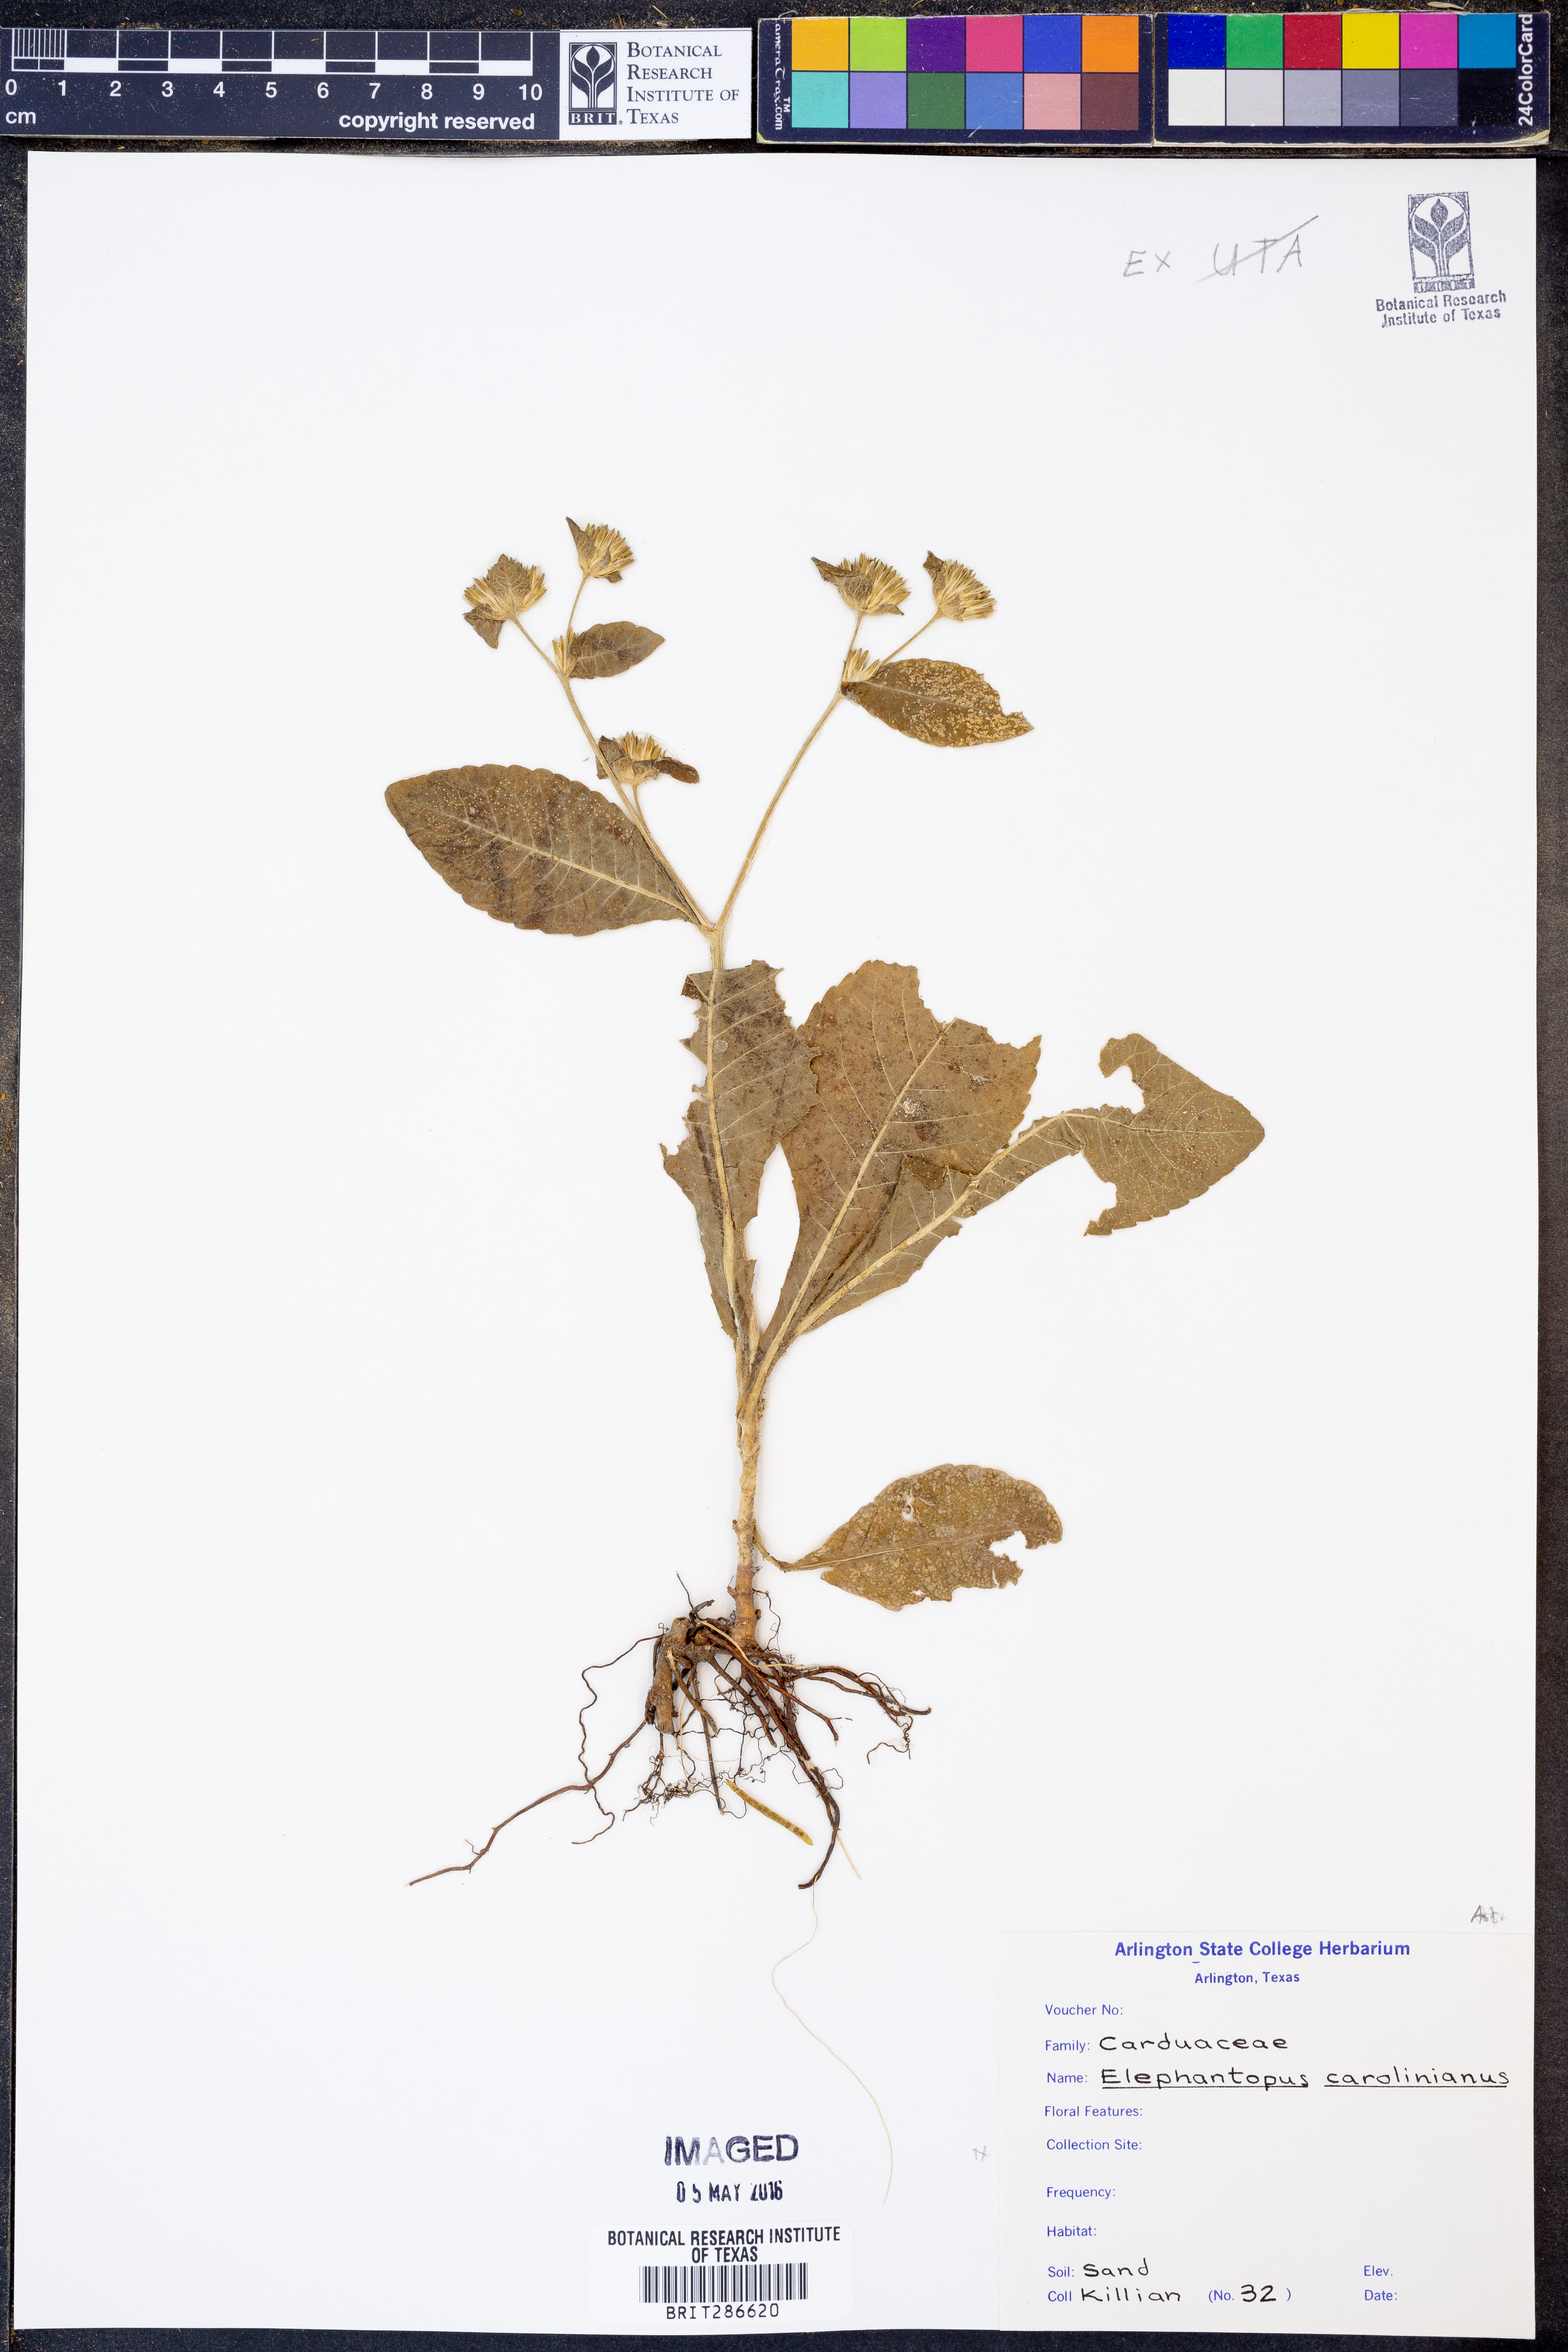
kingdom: Plantae
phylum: Tracheophyta
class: Magnoliopsida
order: Asterales
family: Asteraceae
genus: Elephantopus
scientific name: Elephantopus carolinianus
